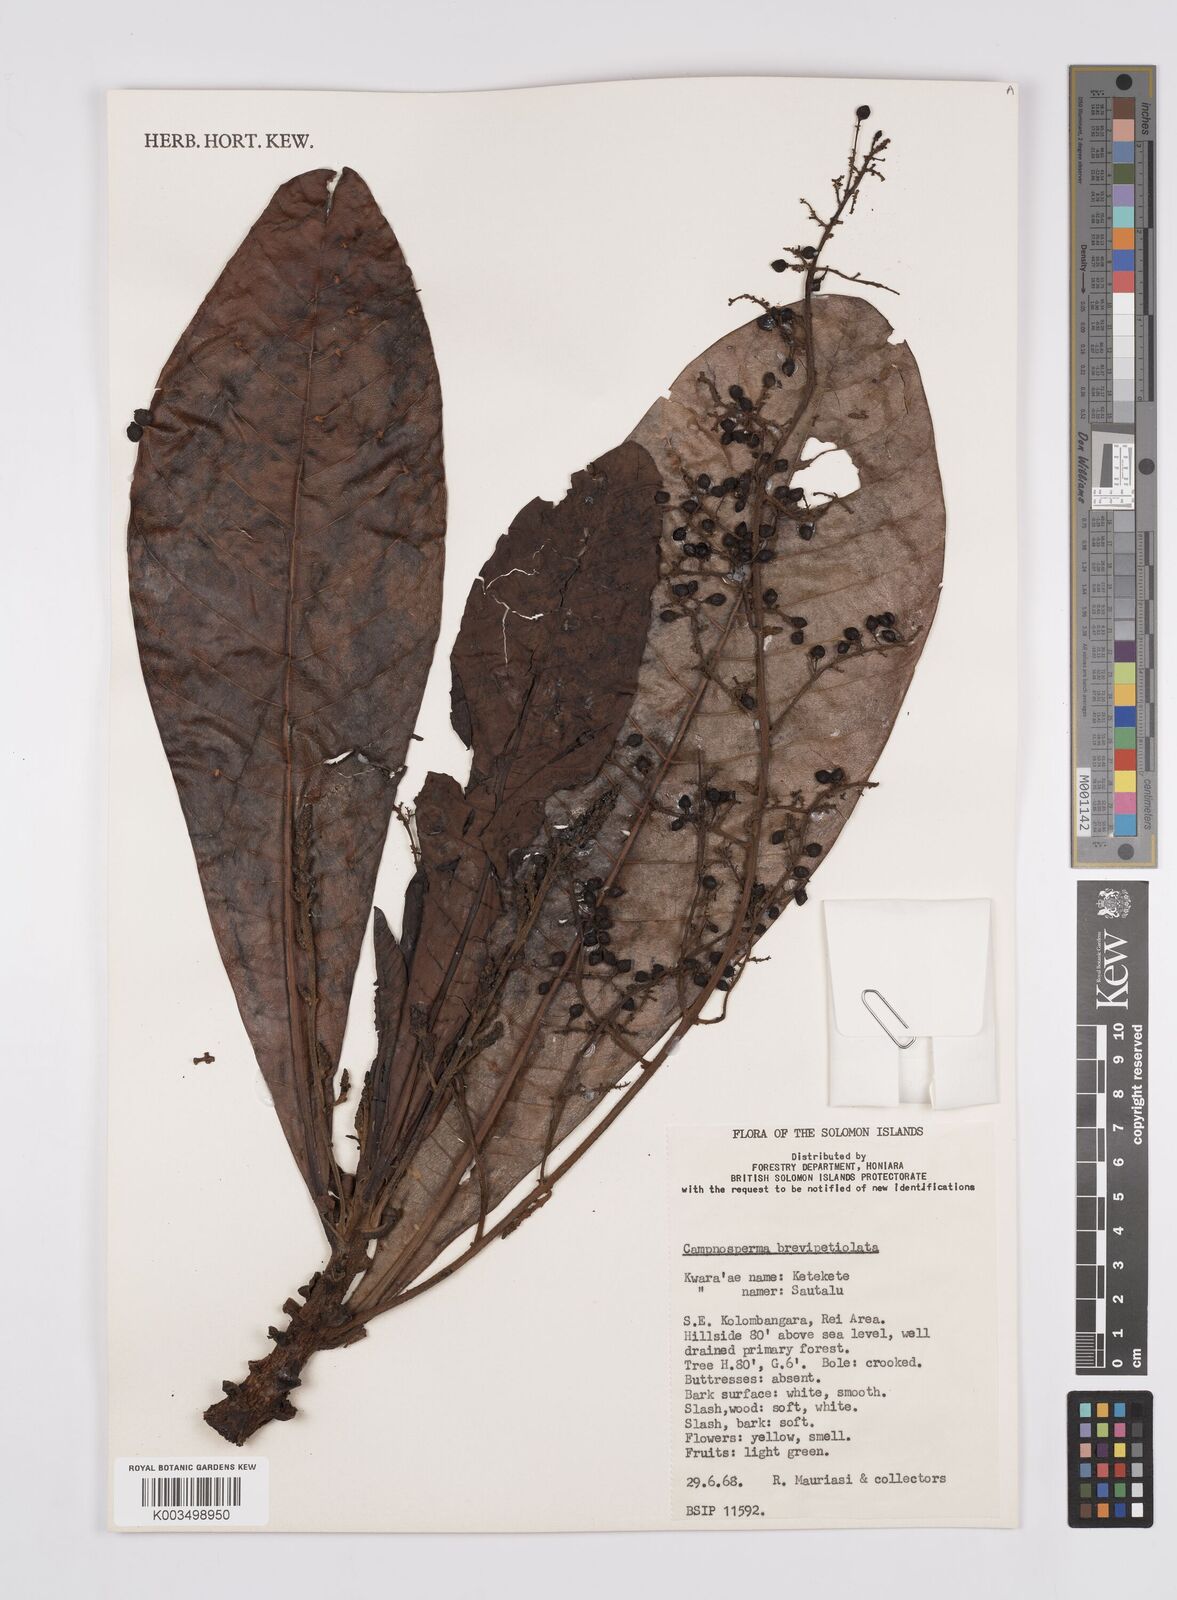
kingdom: Plantae
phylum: Tracheophyta
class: Magnoliopsida
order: Sapindales
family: Anacardiaceae
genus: Campnosperma
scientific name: Campnosperma brevipetiolatum
